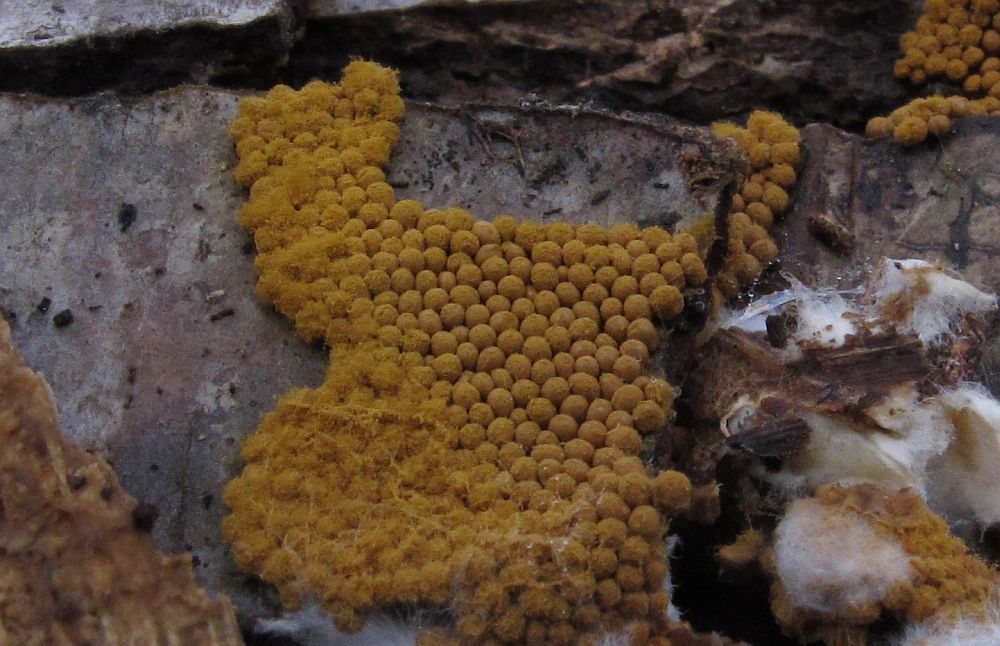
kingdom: Protozoa
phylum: Mycetozoa
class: Myxomycetes
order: Trichiales
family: Trichiaceae
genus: Oligonema
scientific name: Oligonema persimile
